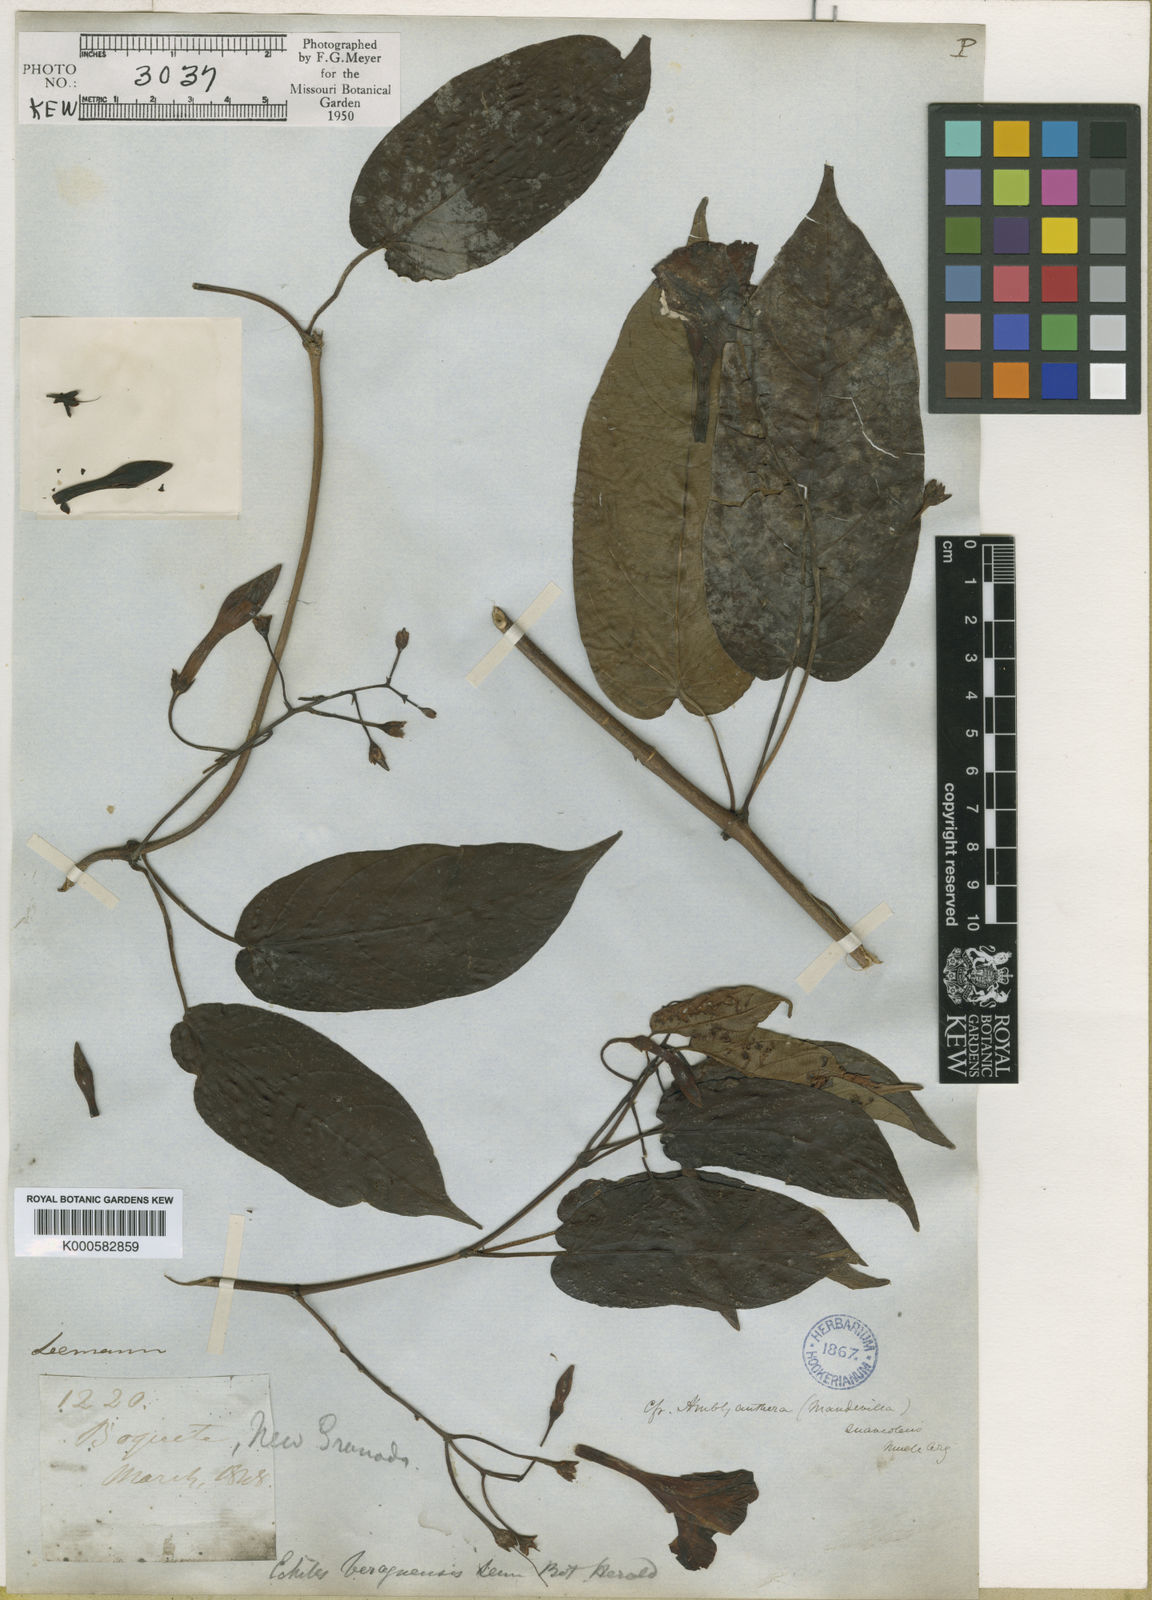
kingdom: Plantae
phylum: Tracheophyta
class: Magnoliopsida
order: Gentianales
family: Apocynaceae
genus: Mandevilla
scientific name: Mandevilla veraguasensis
